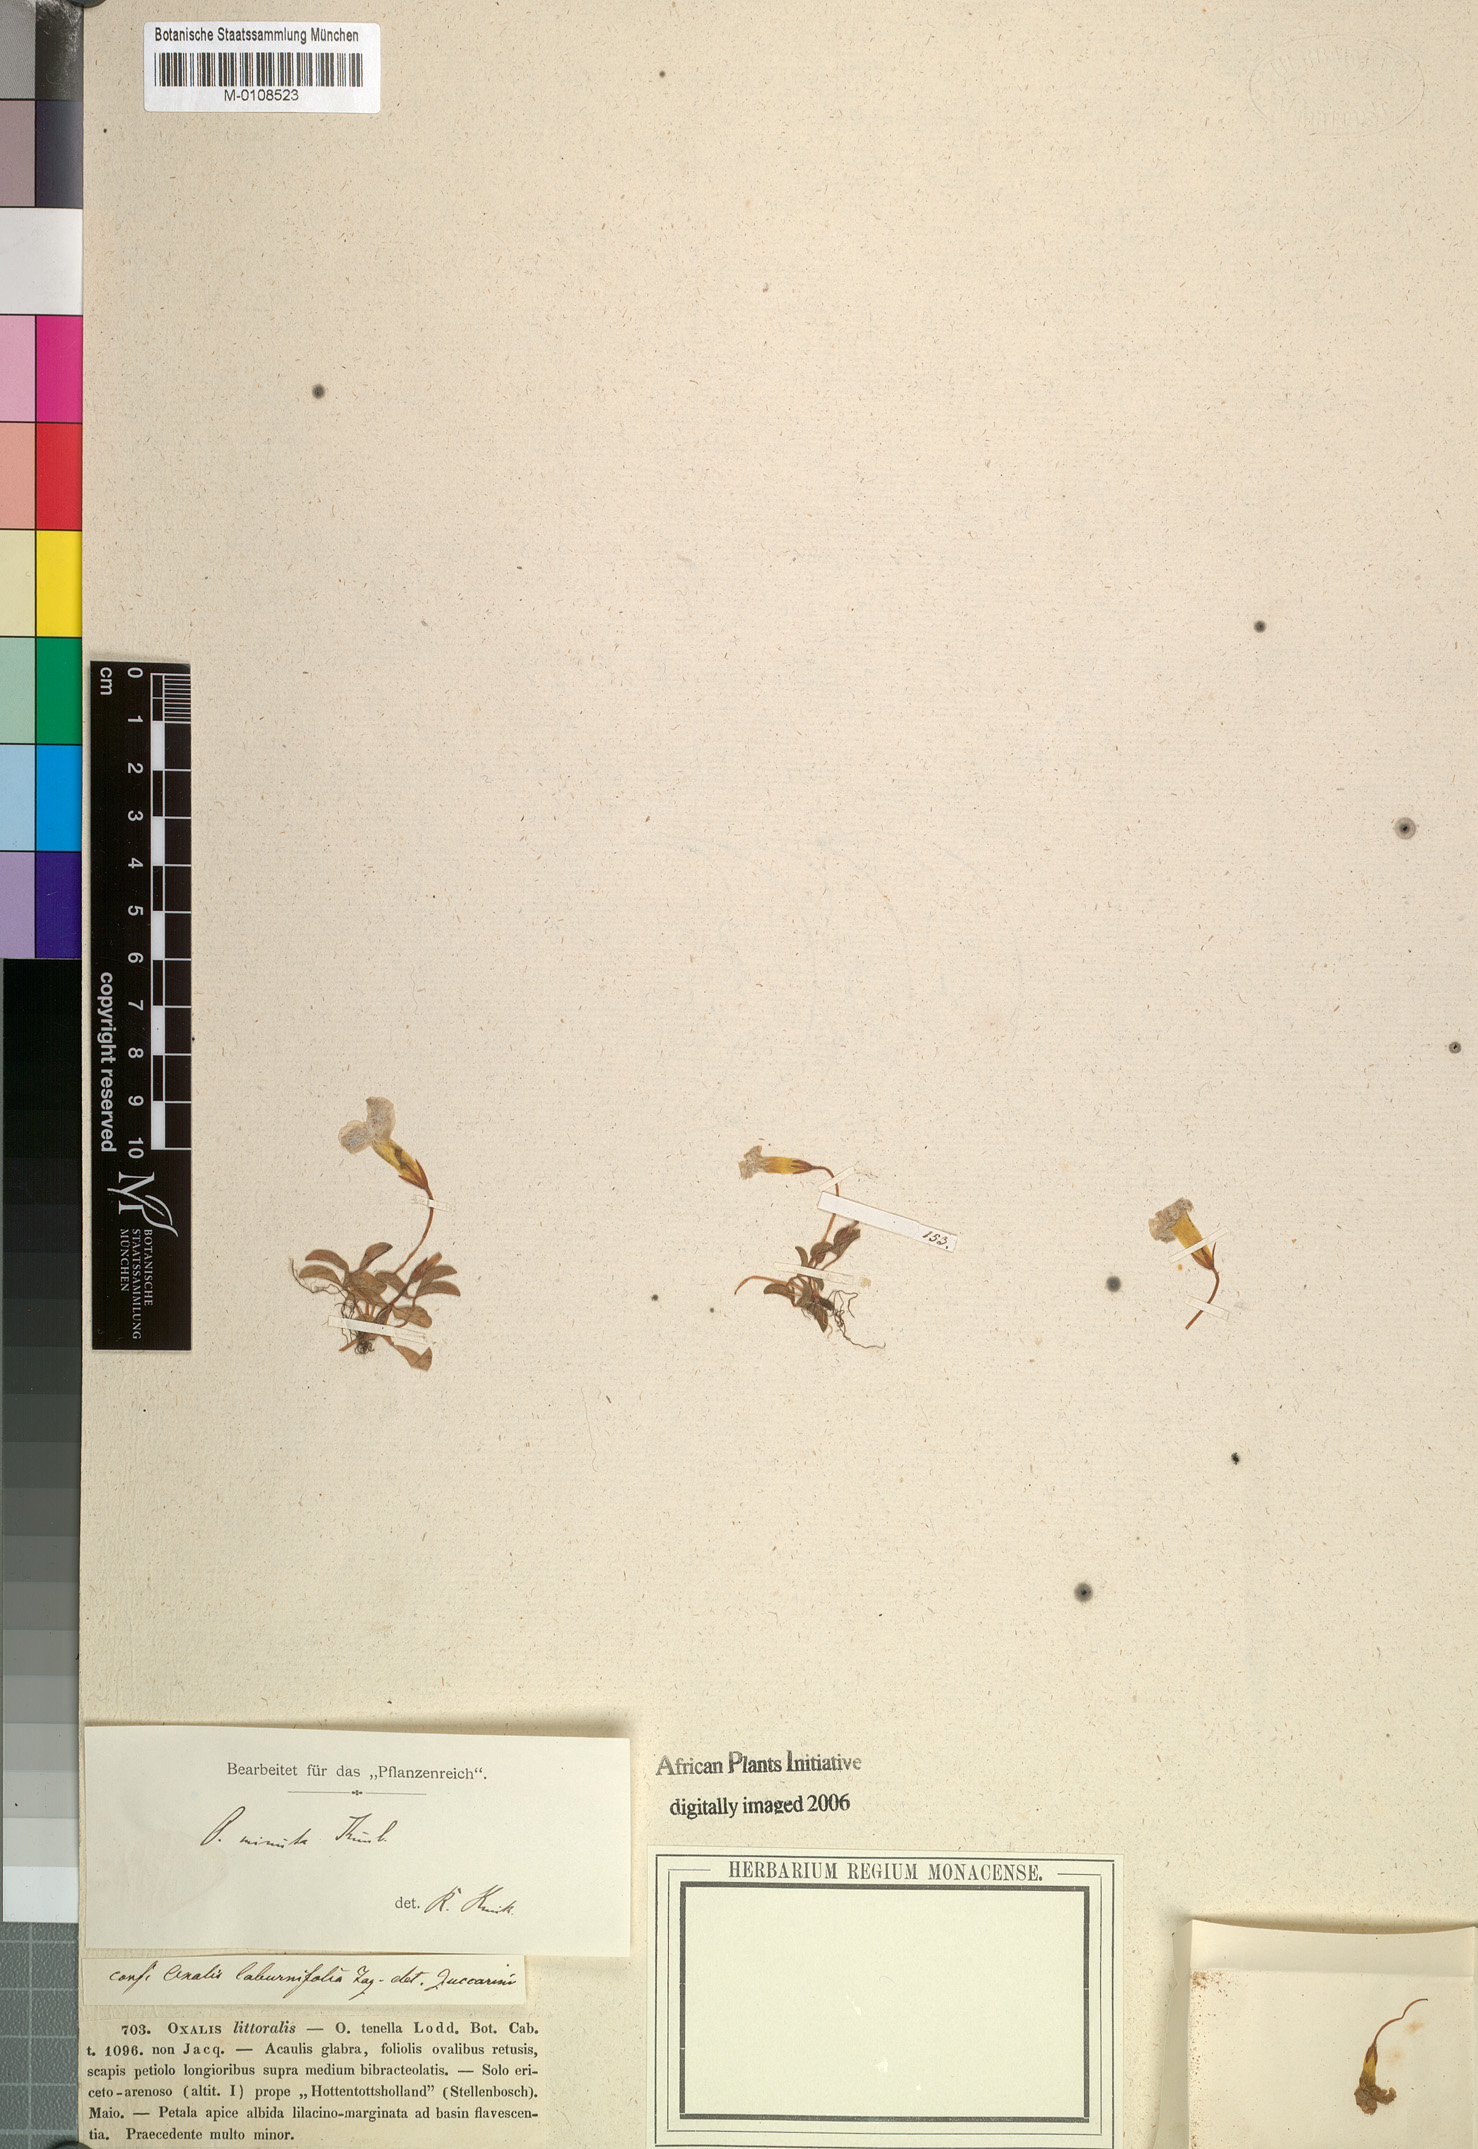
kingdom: Plantae
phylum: Tracheophyta
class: Magnoliopsida
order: Oxalidales
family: Oxalidaceae
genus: Oxalis
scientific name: Oxalis minuta
